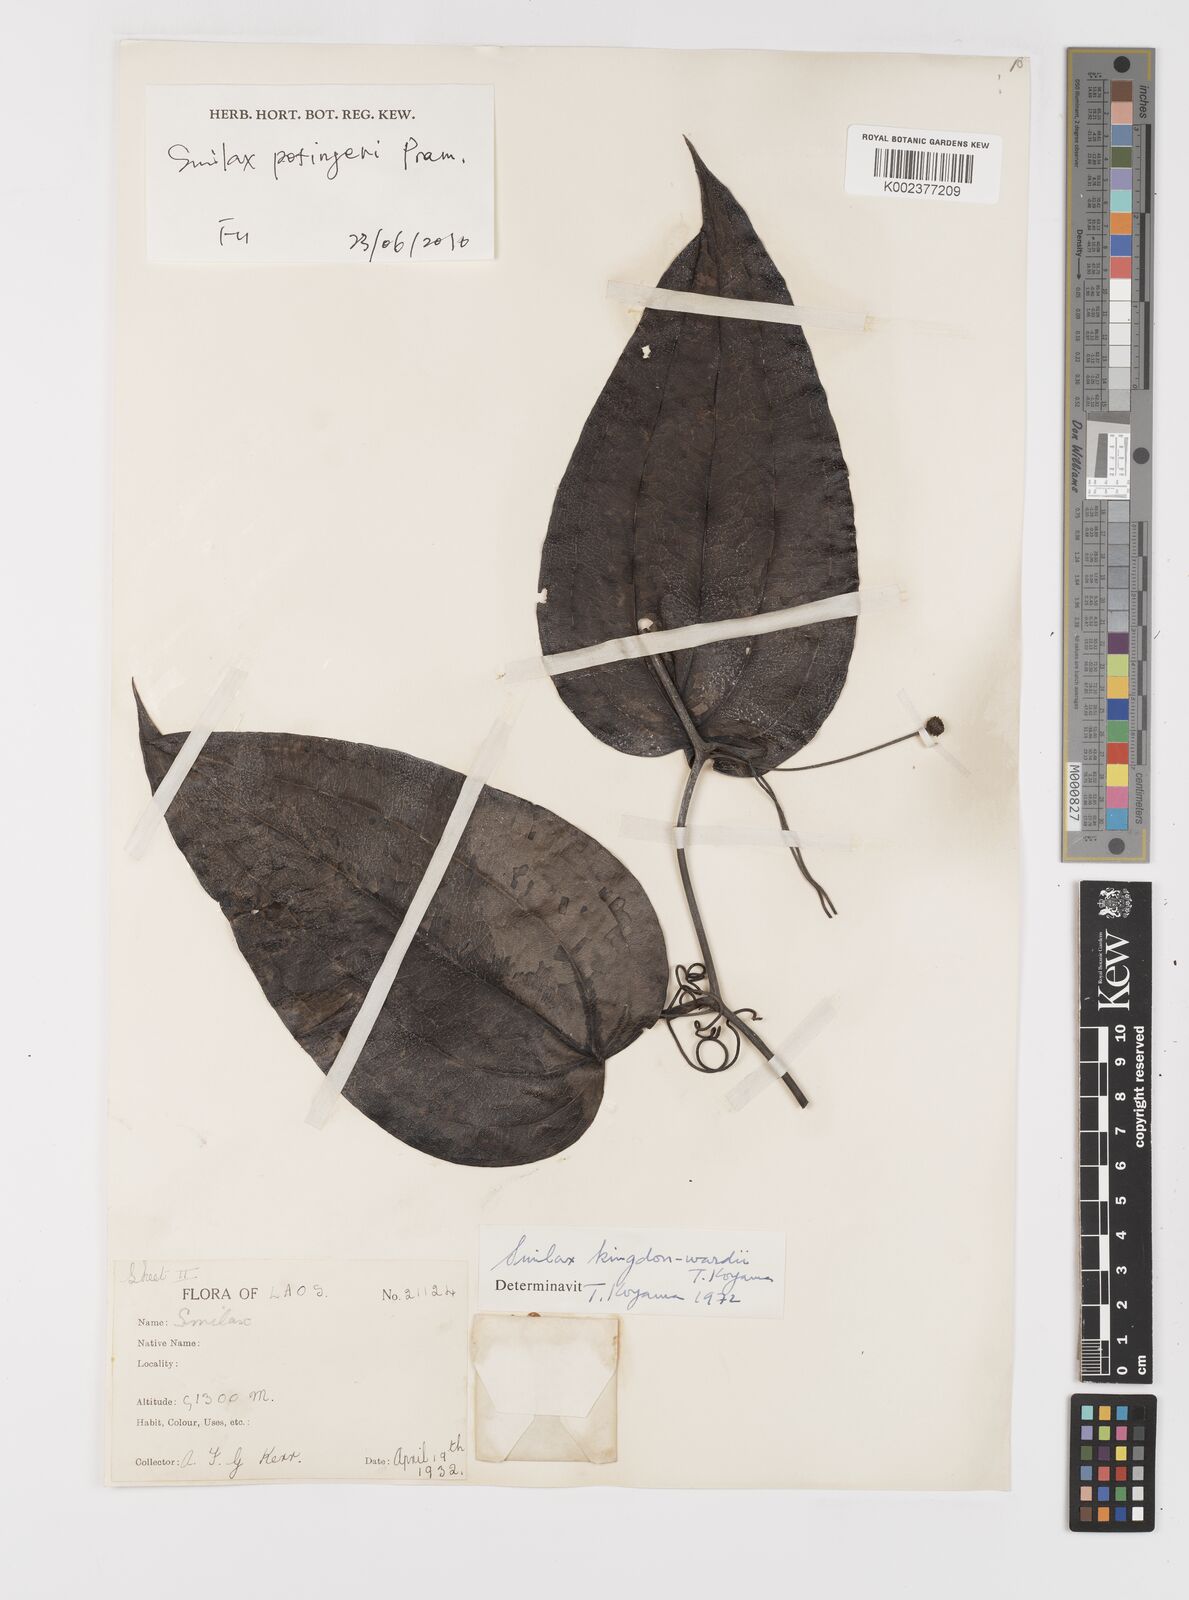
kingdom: Plantae
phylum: Tracheophyta
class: Liliopsida
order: Liliales
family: Smilacaceae
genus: Smilax
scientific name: Smilax
